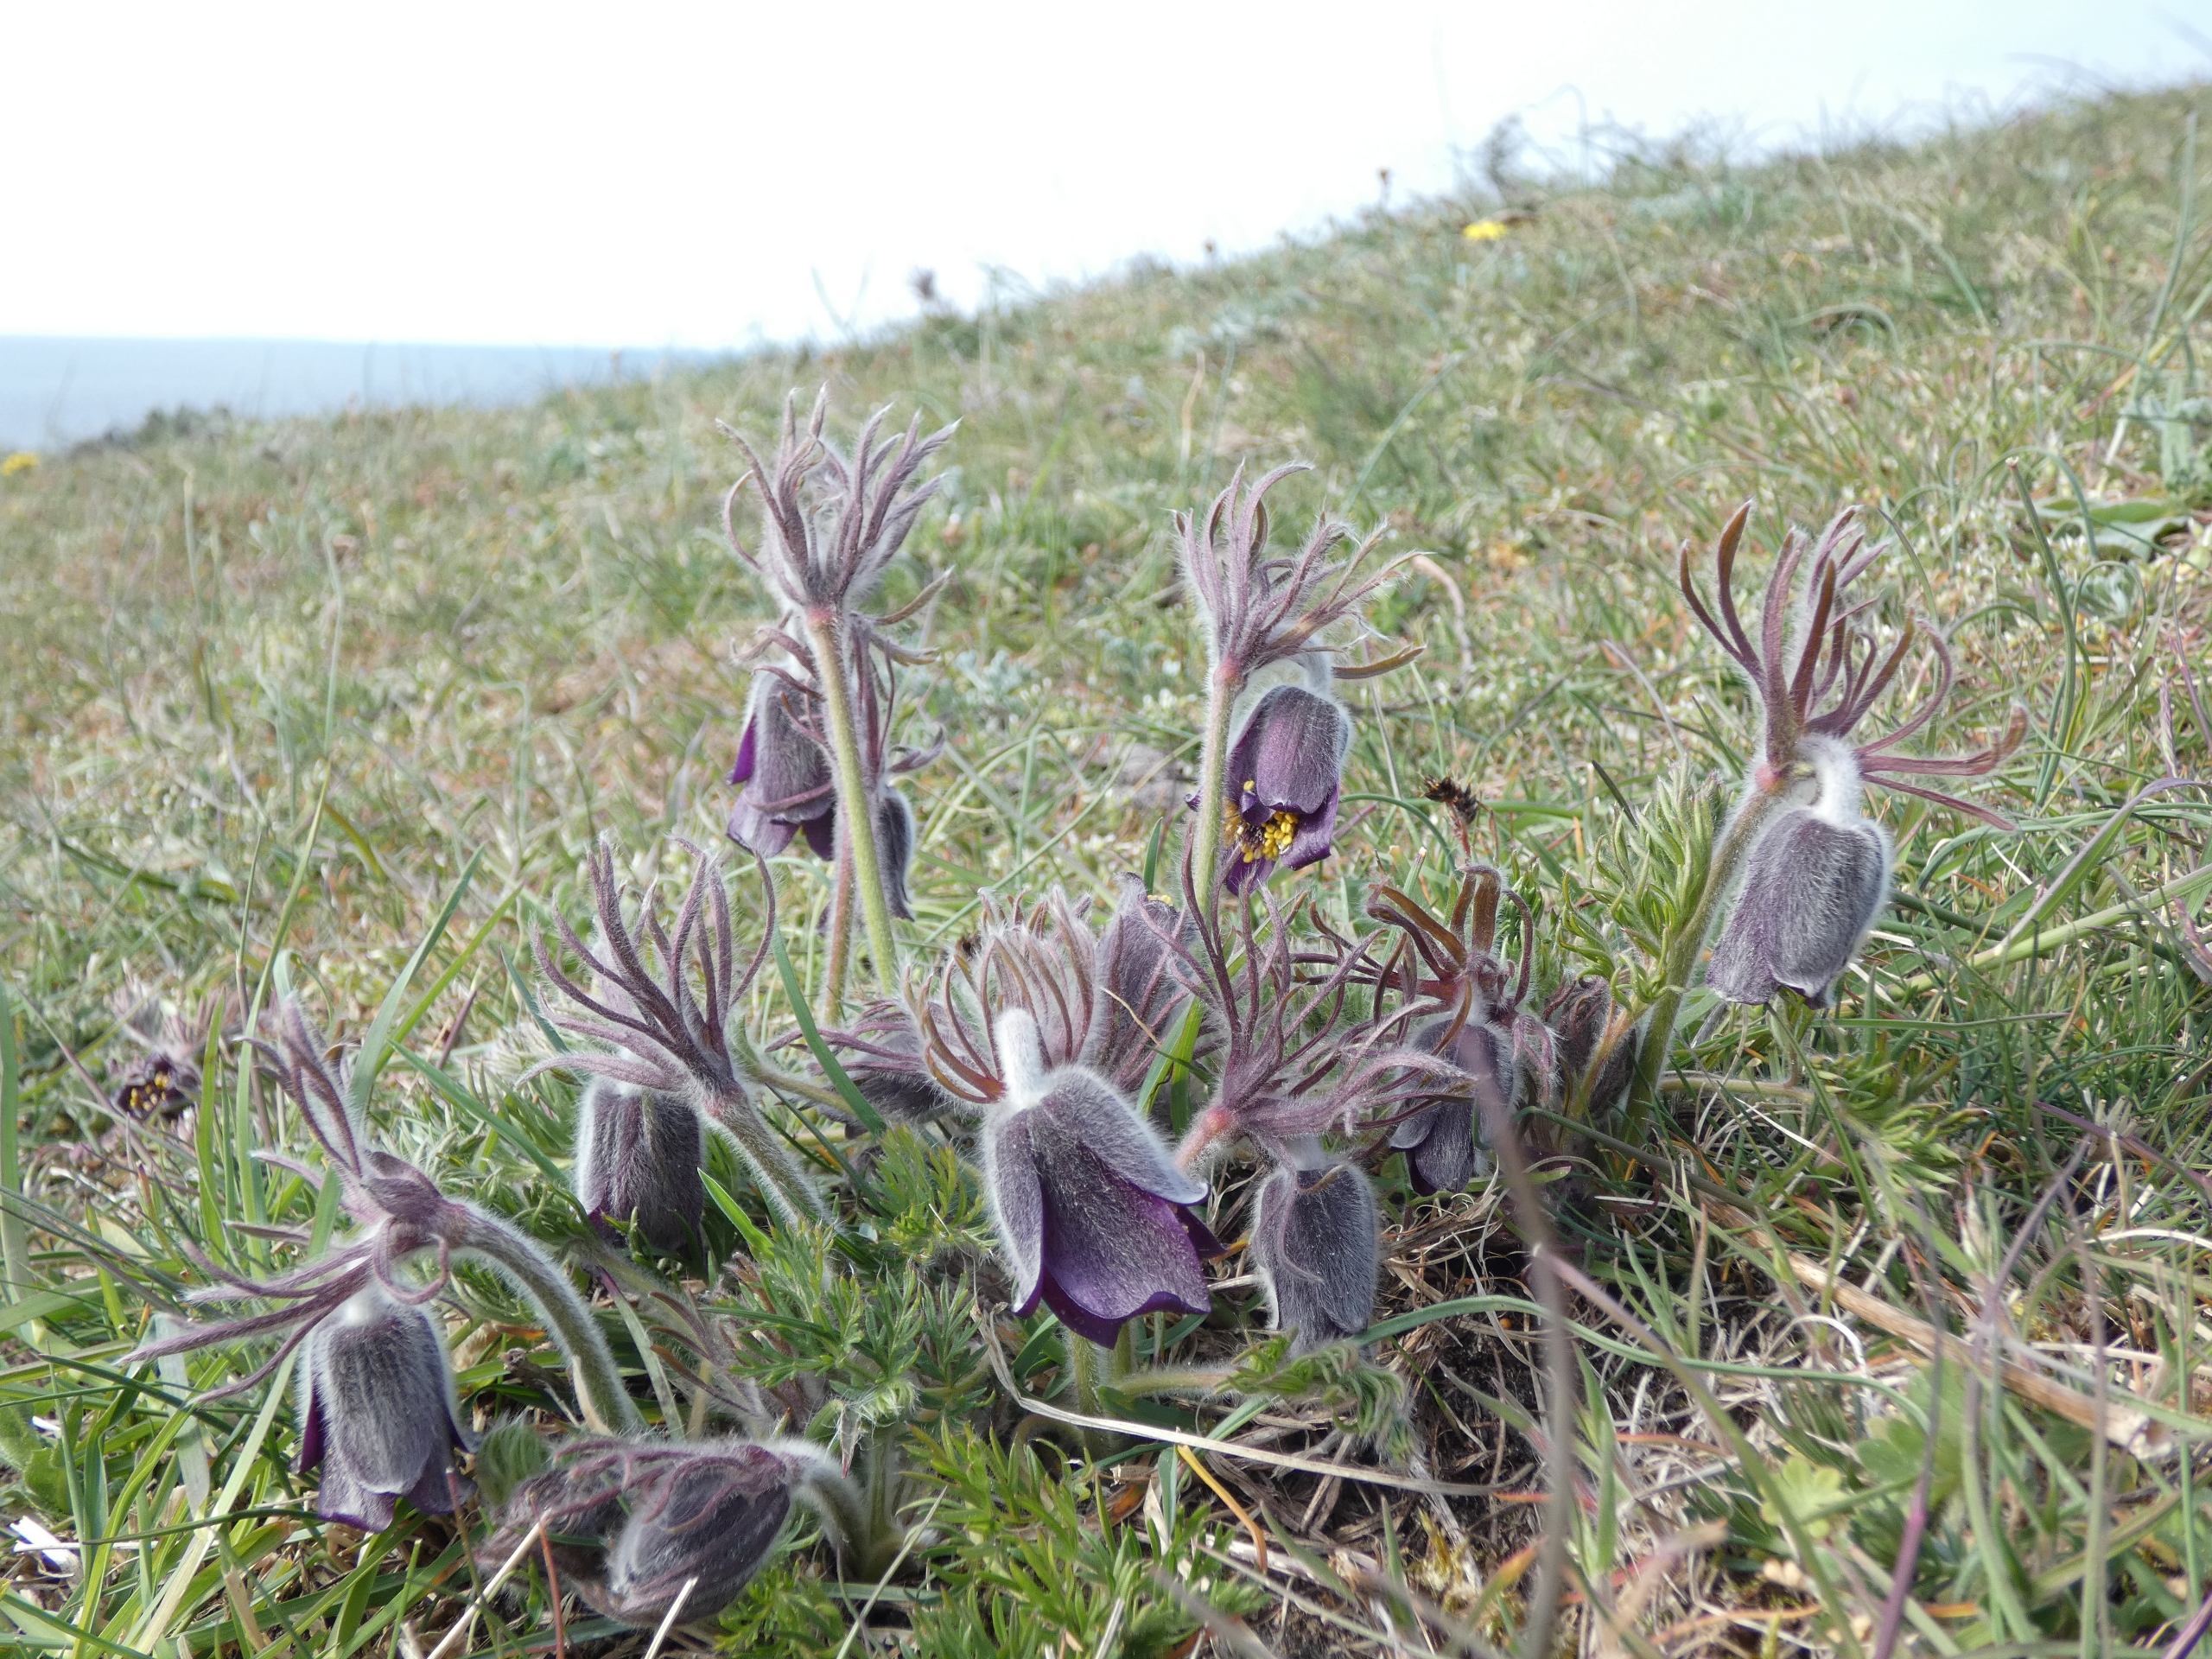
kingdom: Plantae
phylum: Tracheophyta
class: Magnoliopsida
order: Ranunculales
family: Ranunculaceae
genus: Pulsatilla
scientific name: Pulsatilla pratensis
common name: Nikkende kobjælde
